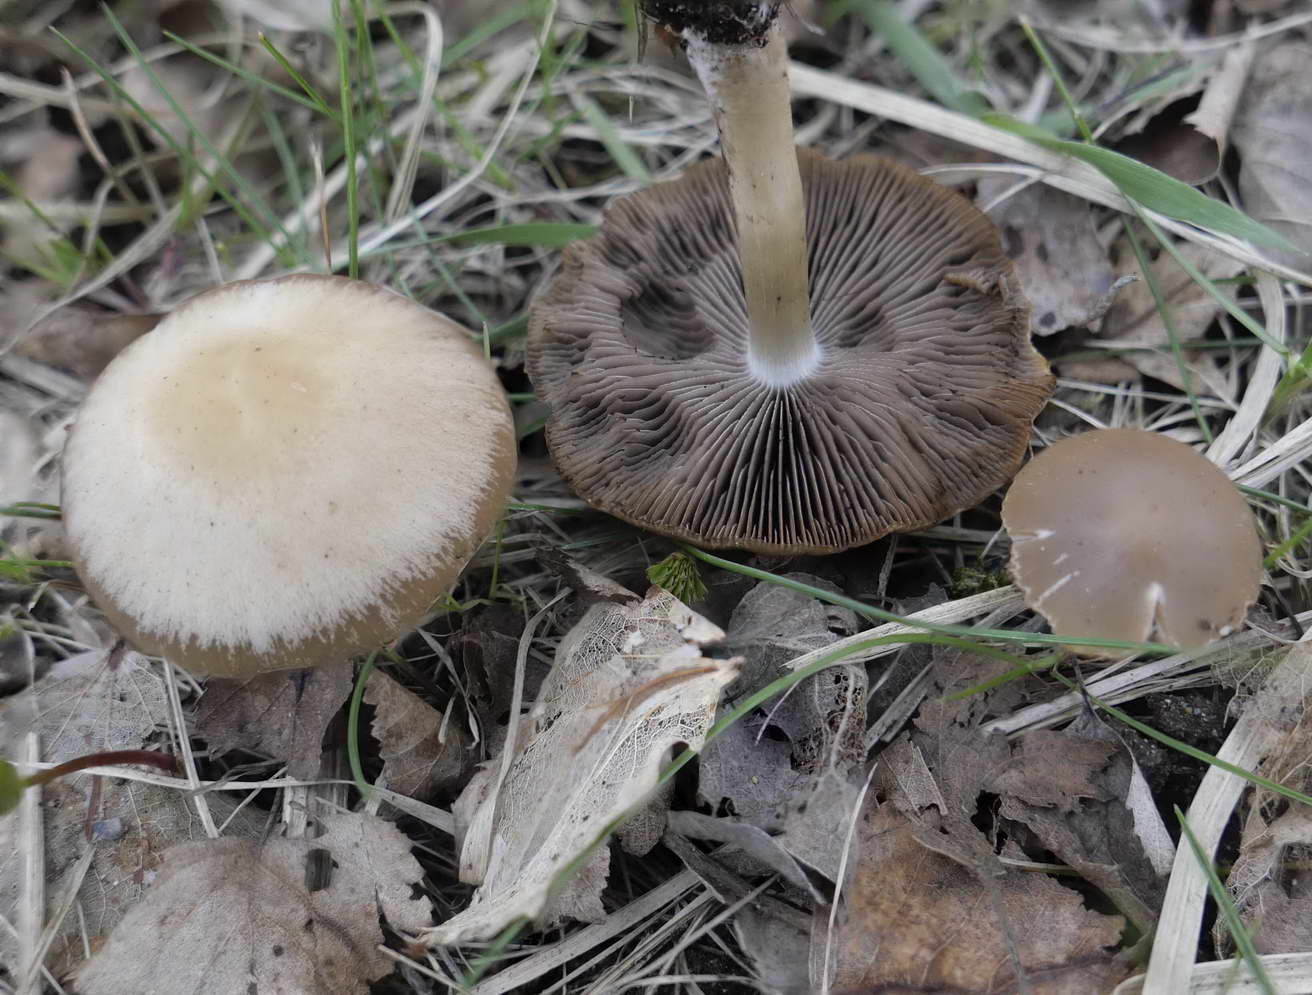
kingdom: Fungi
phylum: Basidiomycota
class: Agaricomycetes
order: Agaricales
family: Psathyrellaceae
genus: Psathyrella
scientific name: Psathyrella spadiceogrisea
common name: gråbrun mørkhat
